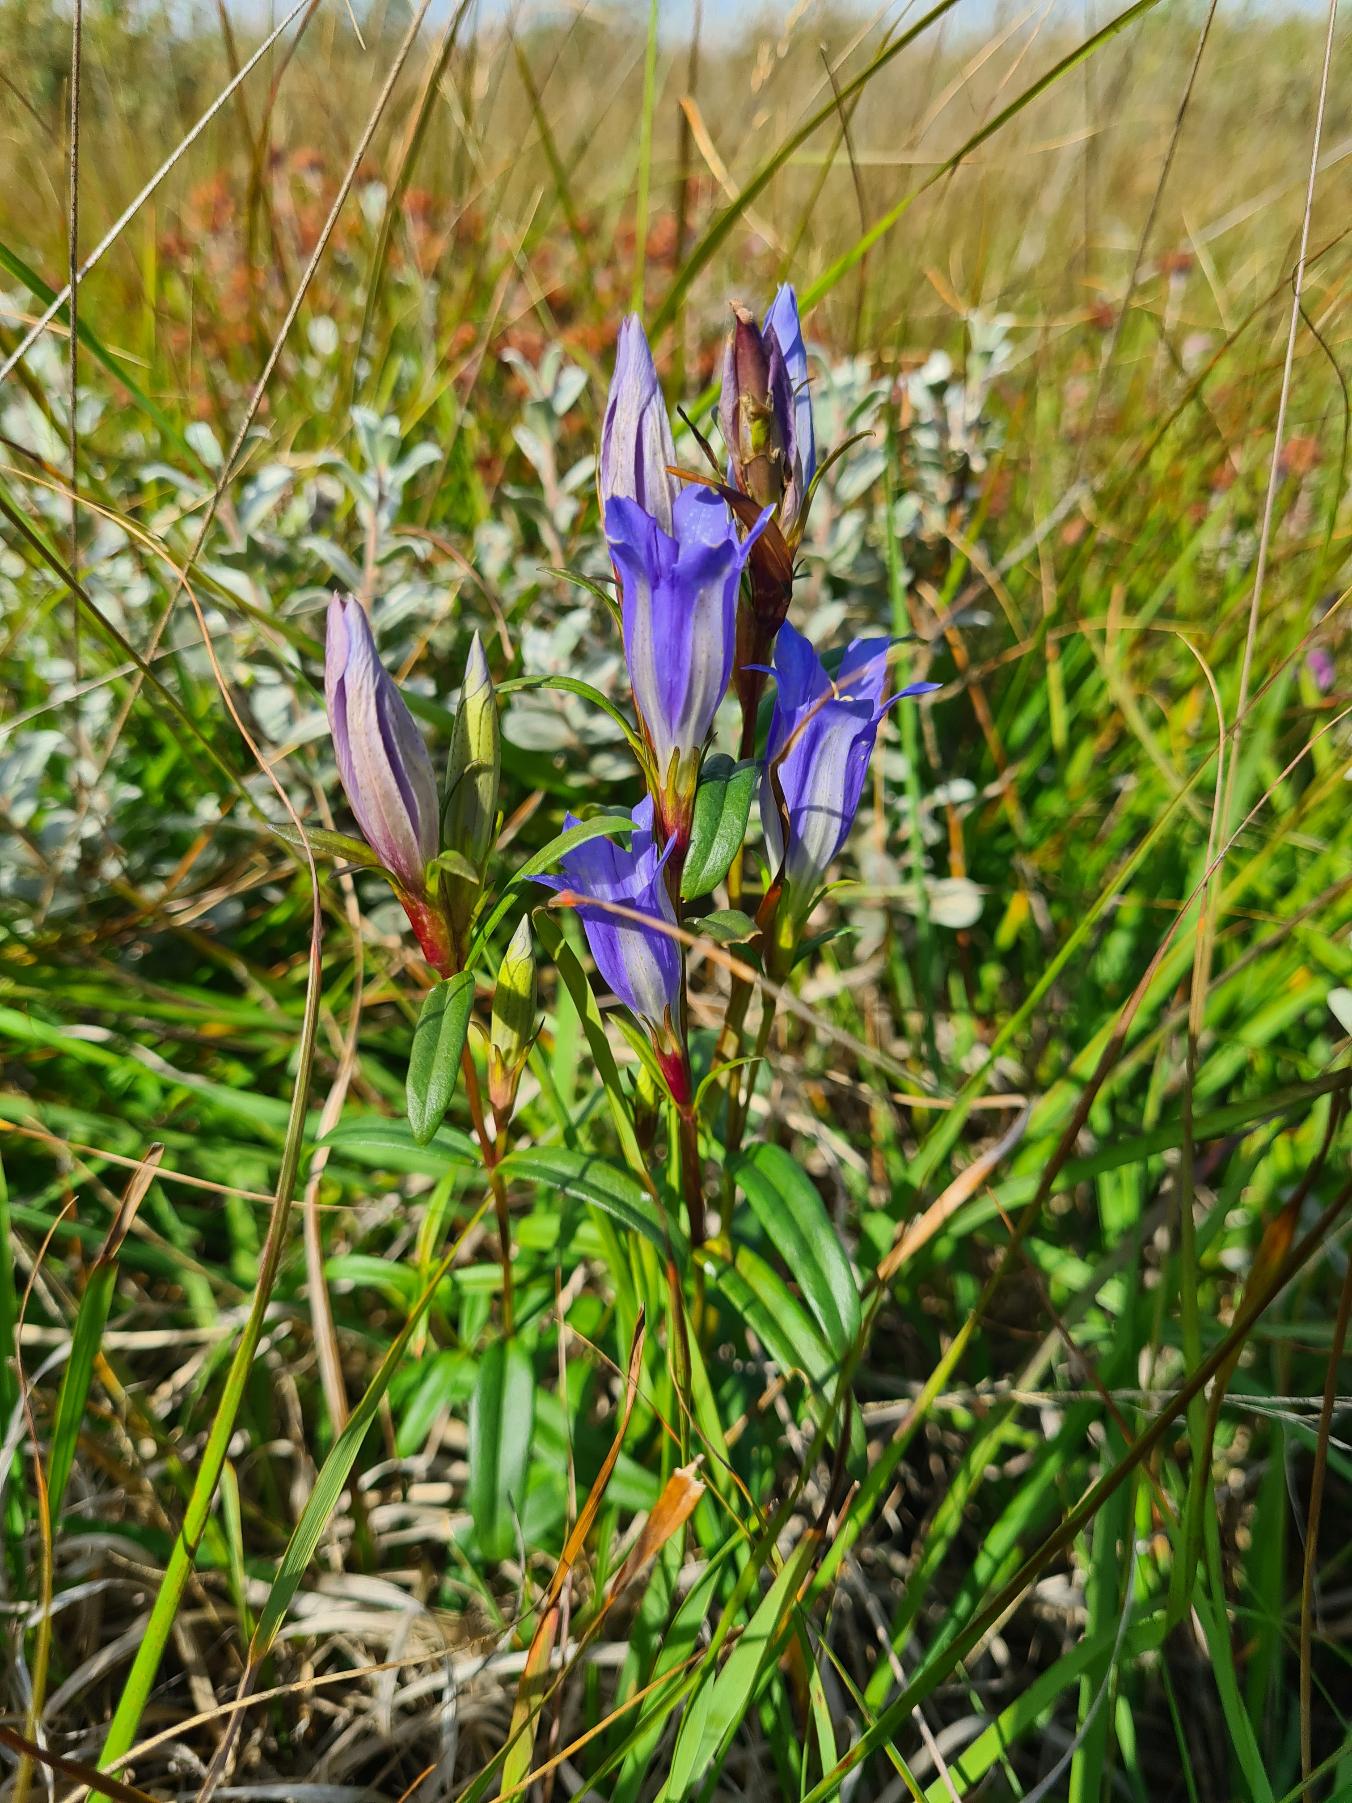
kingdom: Plantae
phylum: Tracheophyta
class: Magnoliopsida
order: Gentianales
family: Gentianaceae
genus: Gentiana
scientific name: Gentiana pneumonanthe
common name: Klokke-ensian
